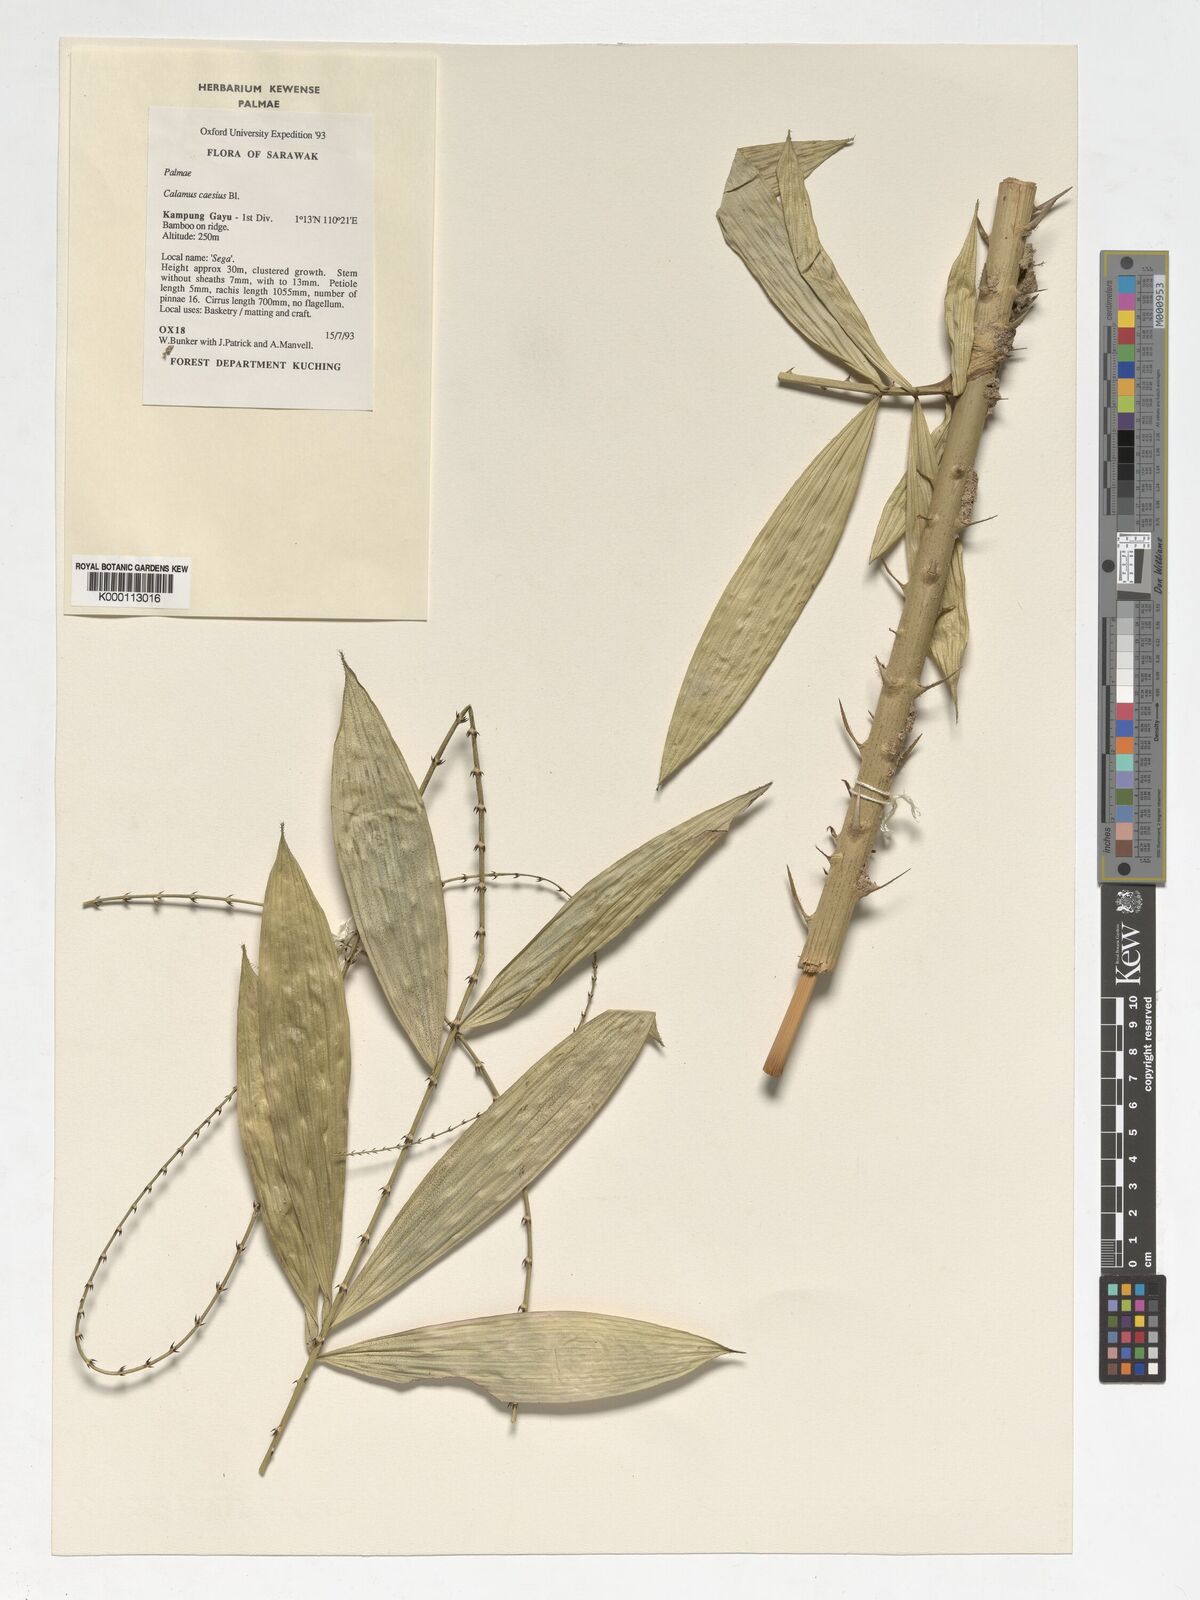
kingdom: Plantae
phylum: Tracheophyta
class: Liliopsida
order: Arecales
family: Arecaceae
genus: Calamus
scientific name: Calamus caesius
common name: Rattan palm
